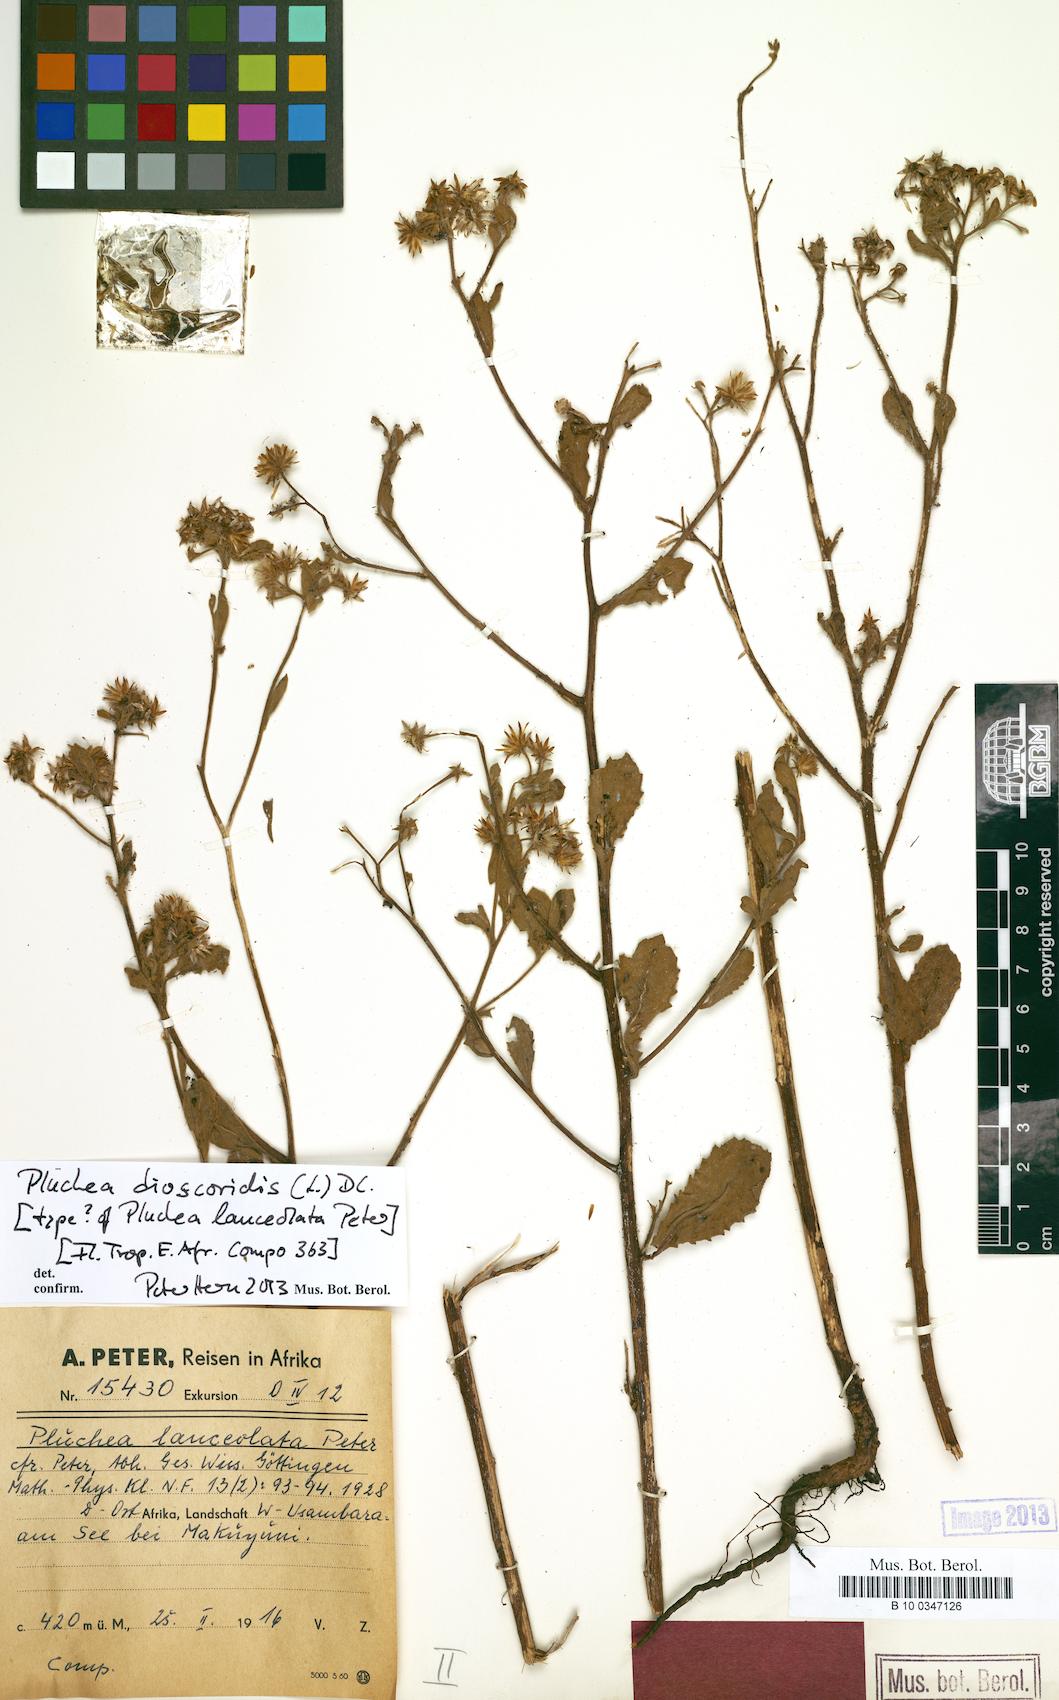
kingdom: Plantae
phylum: Tracheophyta
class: Magnoliopsida
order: Asterales
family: Asteraceae
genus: Pluchea
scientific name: Pluchea dioscoridis
